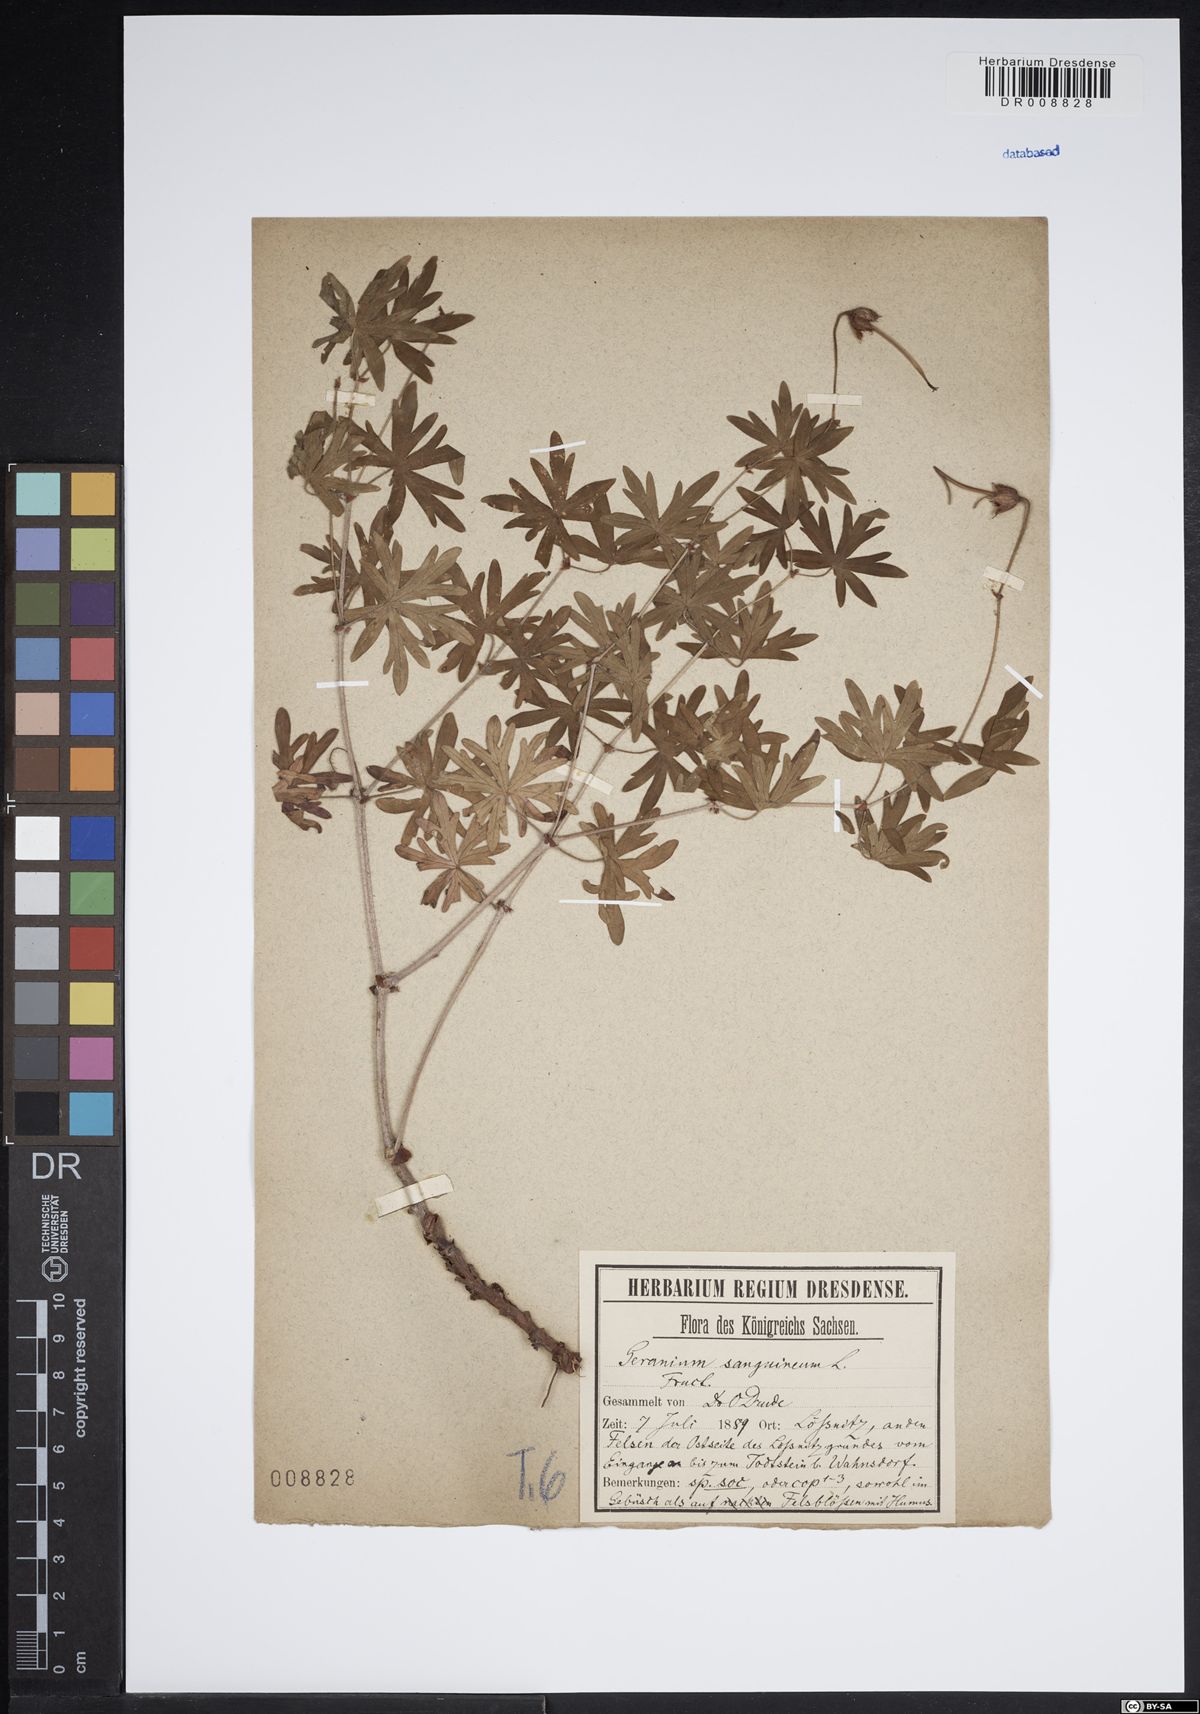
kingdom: Plantae
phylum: Tracheophyta
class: Magnoliopsida
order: Geraniales
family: Geraniaceae
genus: Geranium
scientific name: Geranium sanguineum
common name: Bloody crane's-bill
